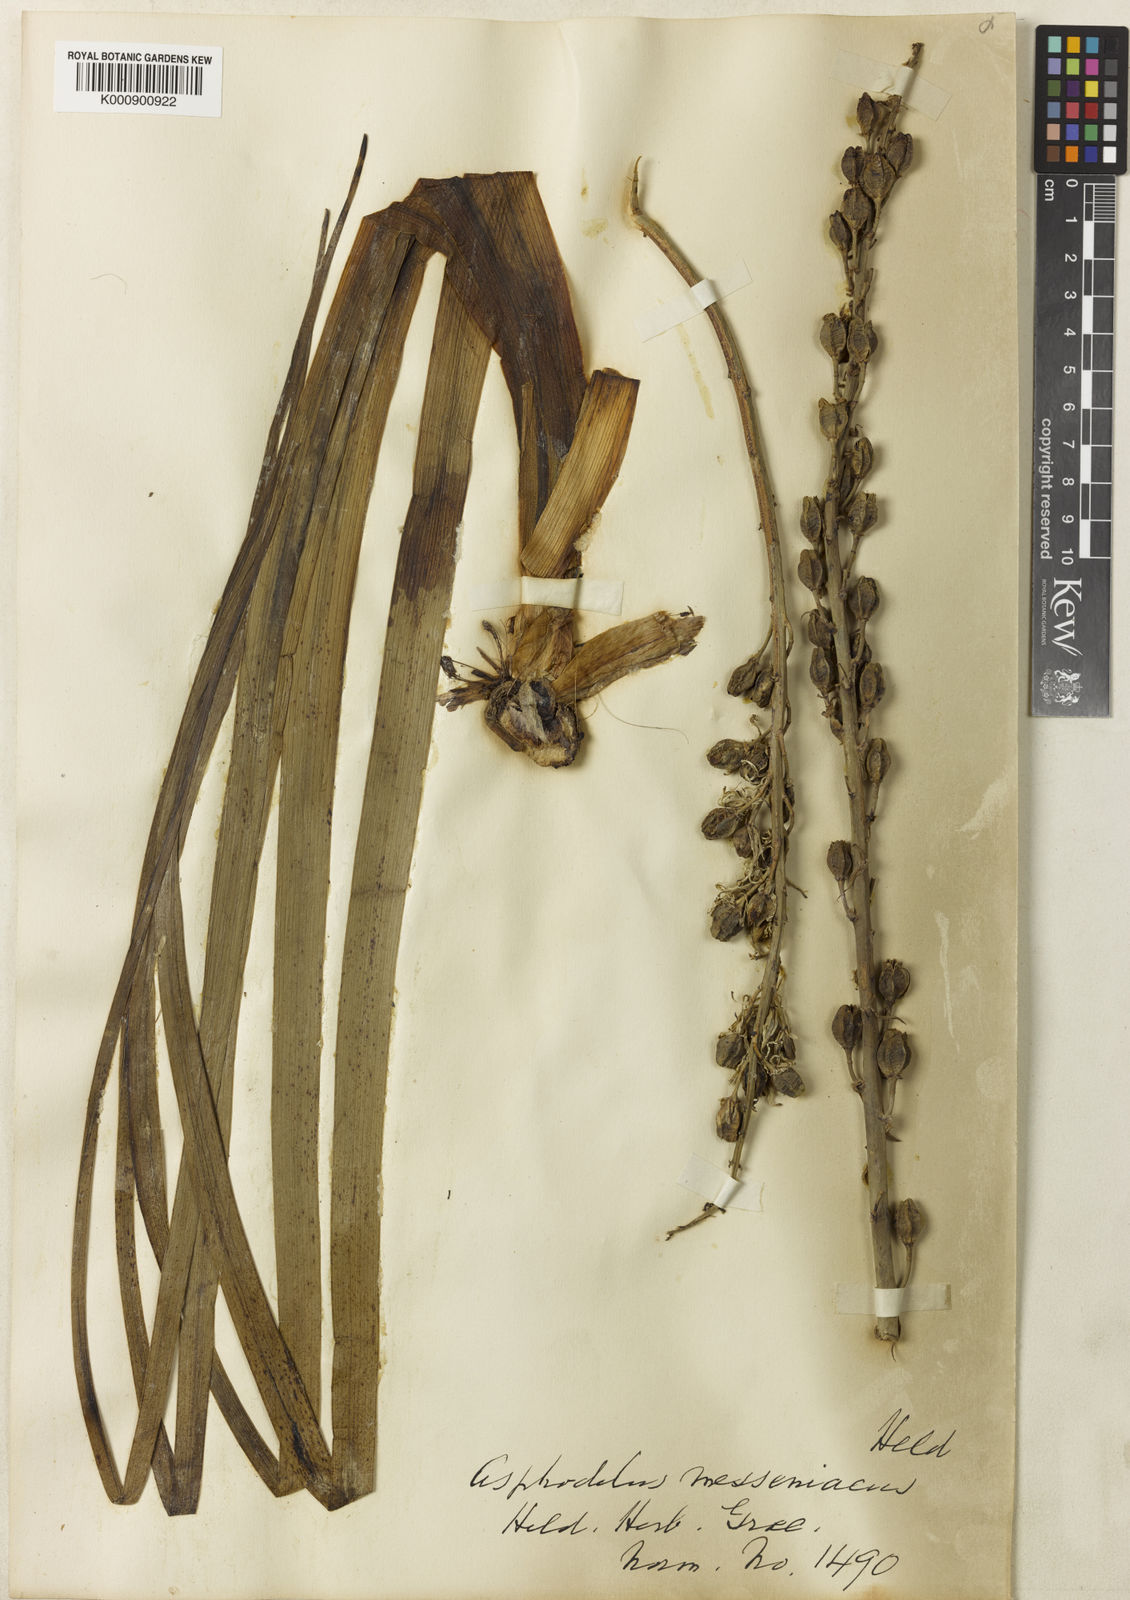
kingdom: Plantae
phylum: Tracheophyta
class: Liliopsida
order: Asparagales
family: Asphodelaceae
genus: Asphodelus
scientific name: Asphodelus
